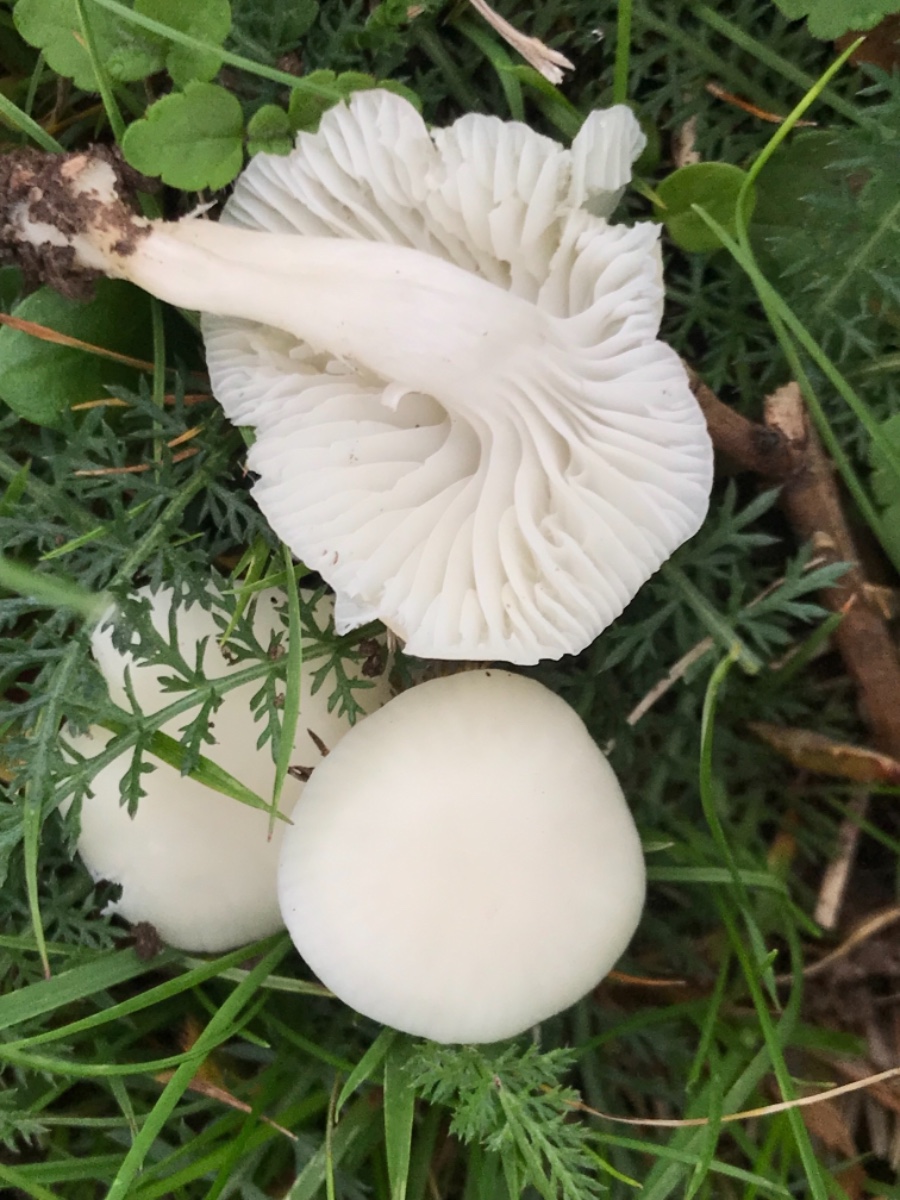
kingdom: Fungi
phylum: Basidiomycota
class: Agaricomycetes
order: Agaricales
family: Hygrophoraceae
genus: Cuphophyllus
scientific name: Cuphophyllus virgineus
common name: snehvid vokshat
